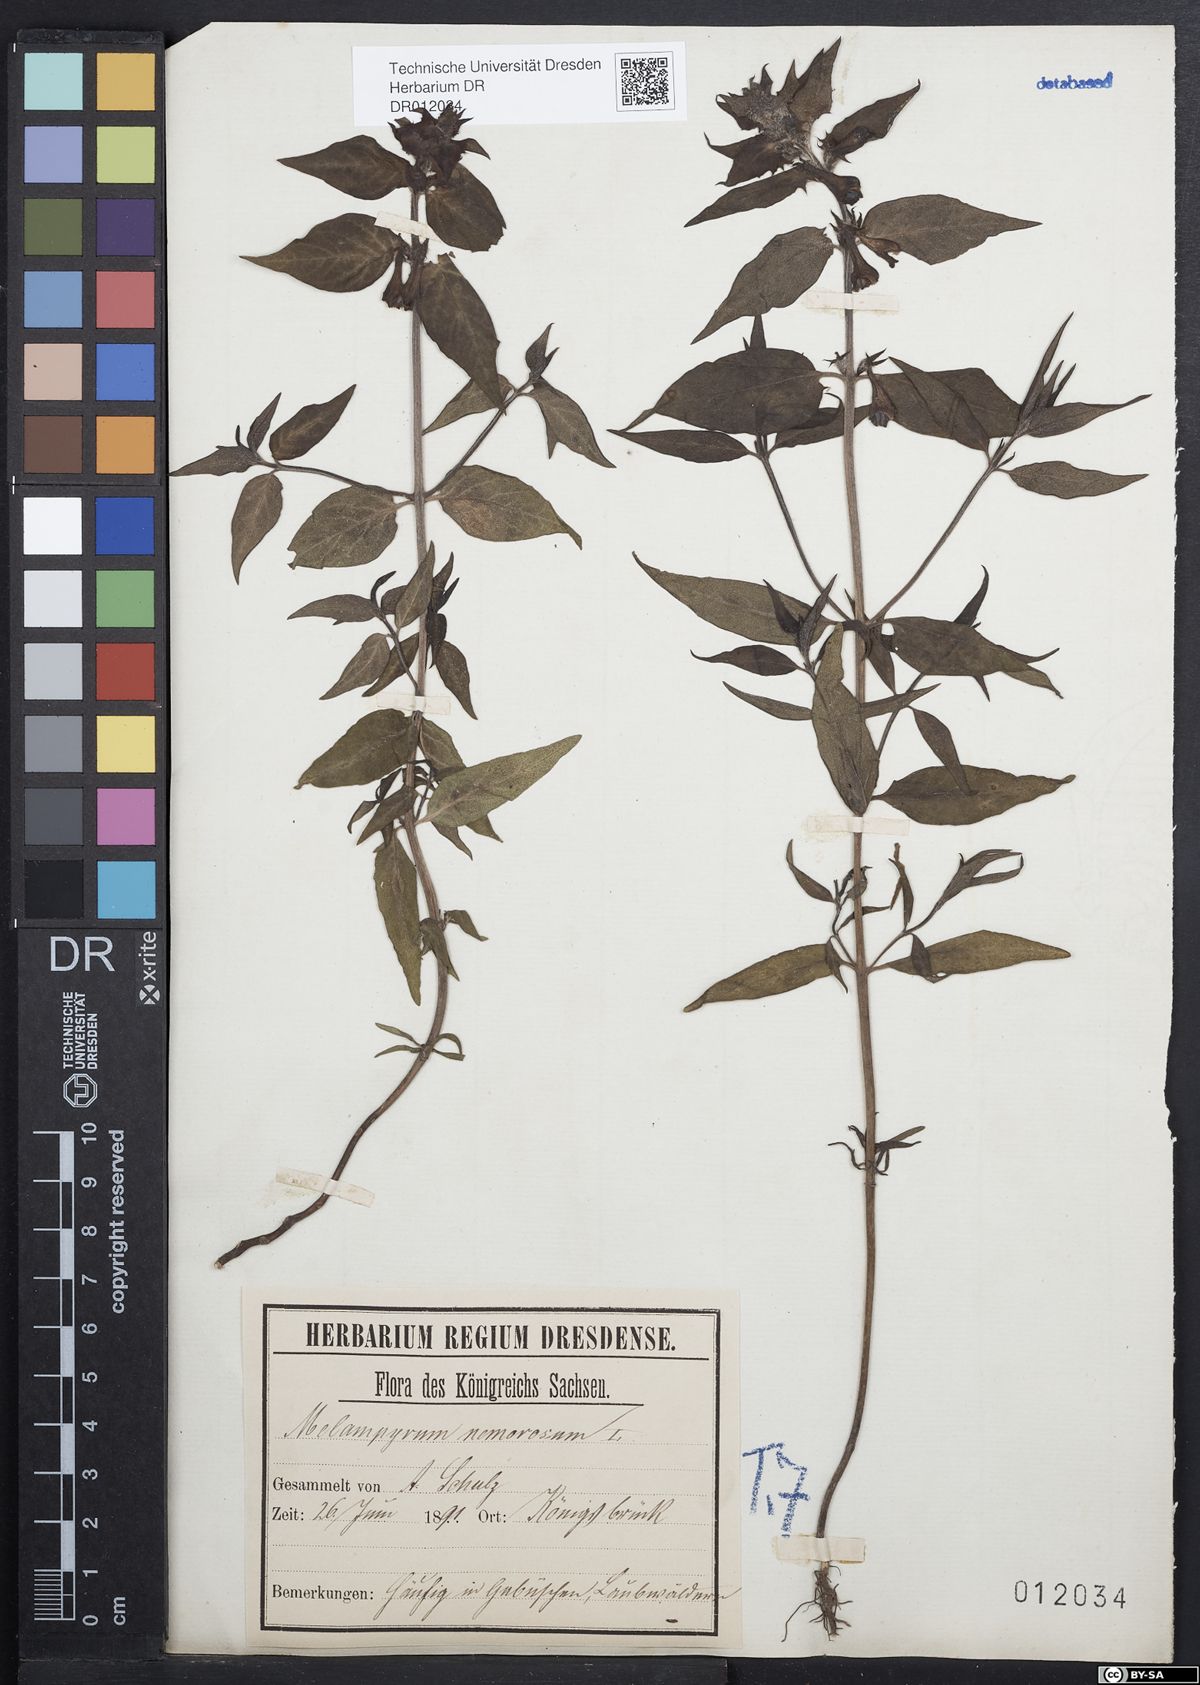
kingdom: Plantae
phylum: Tracheophyta
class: Magnoliopsida
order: Lamiales
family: Orobanchaceae
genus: Melampyrum
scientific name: Melampyrum nemorosum
